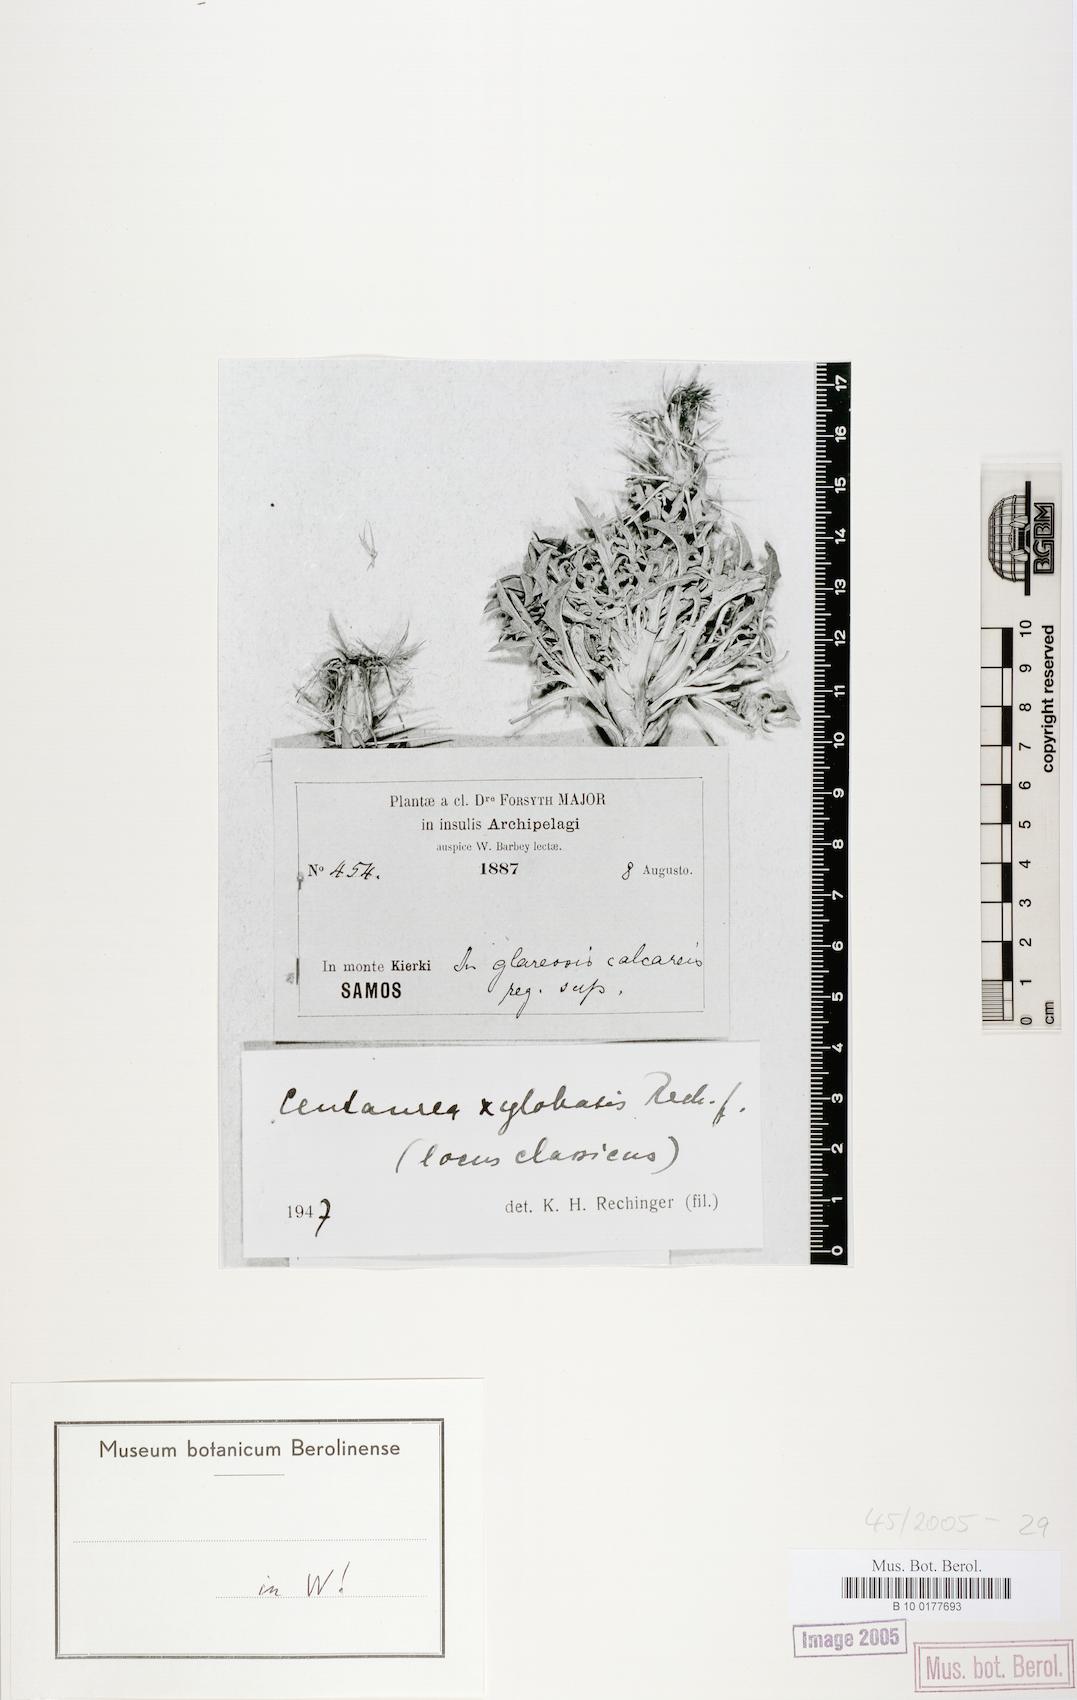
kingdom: Plantae
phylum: Tracheophyta
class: Magnoliopsida
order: Asterales
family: Asteraceae
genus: Centaurea
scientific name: Centaurea xylobasis
